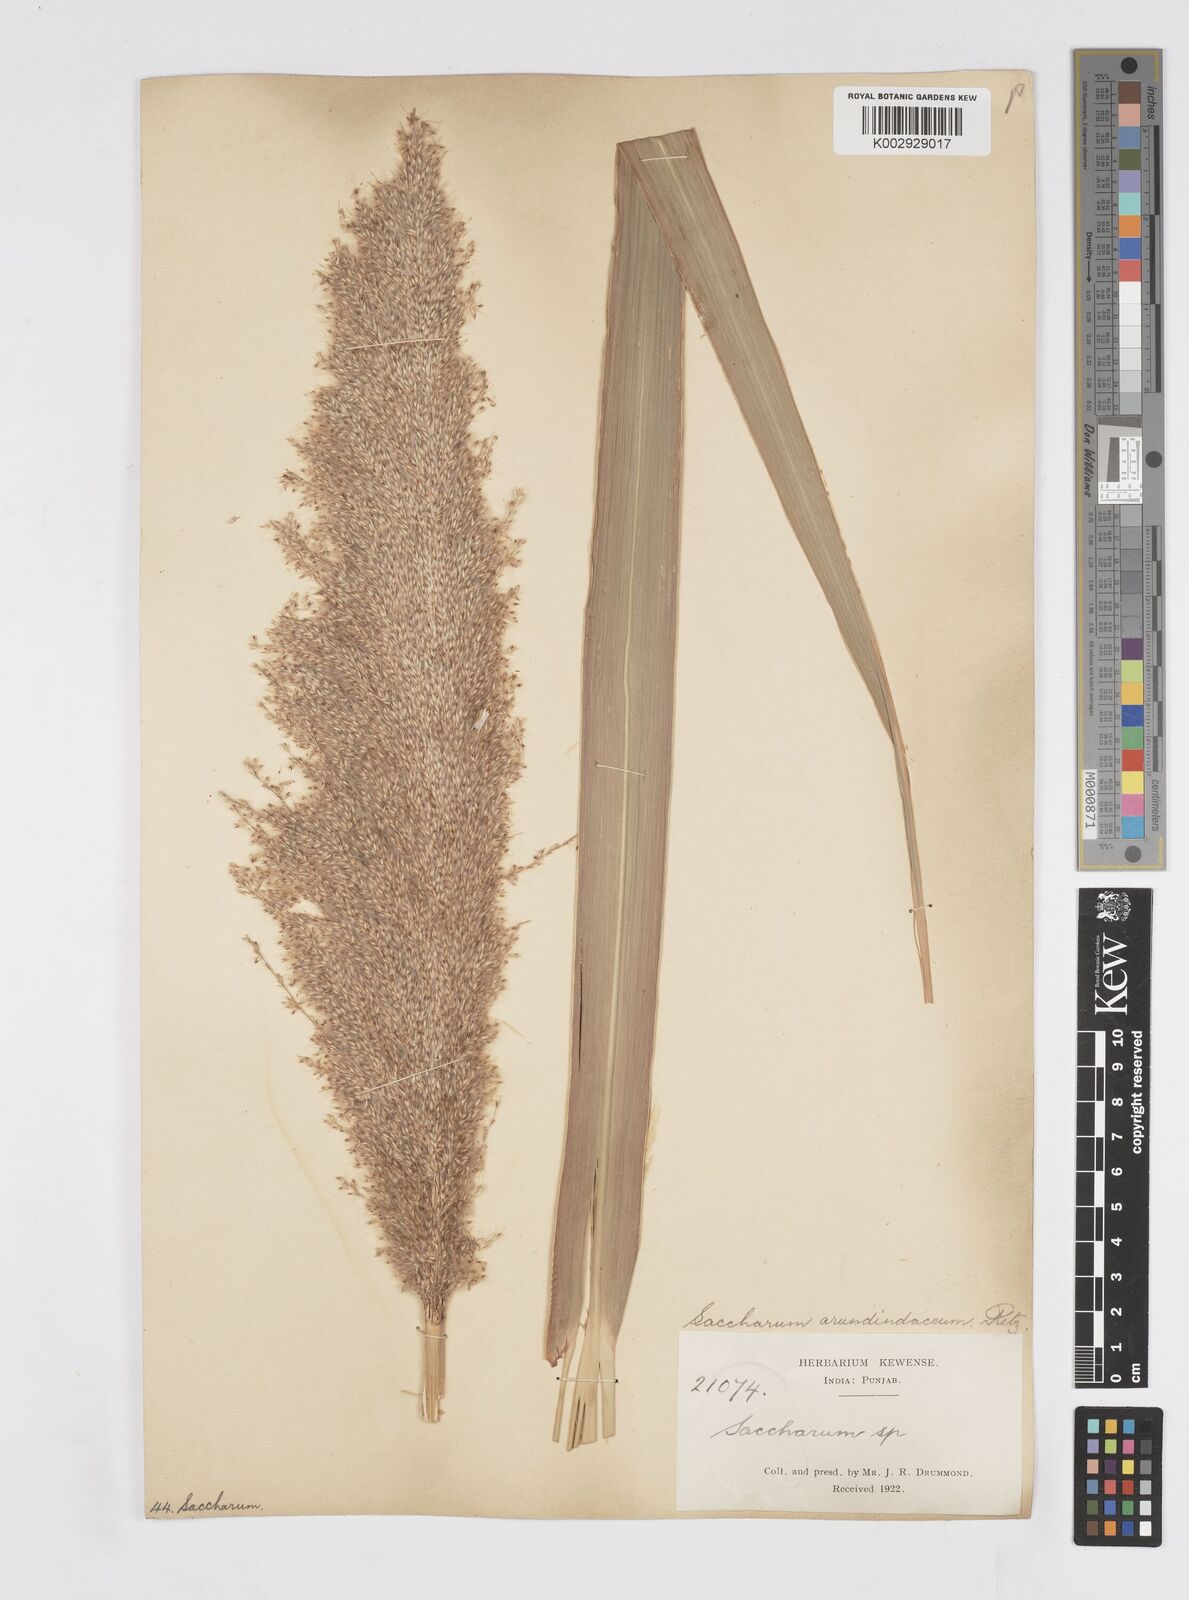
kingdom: Plantae
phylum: Tracheophyta
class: Liliopsida
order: Poales
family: Poaceae
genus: Tripidium
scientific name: Tripidium arundinaceum
